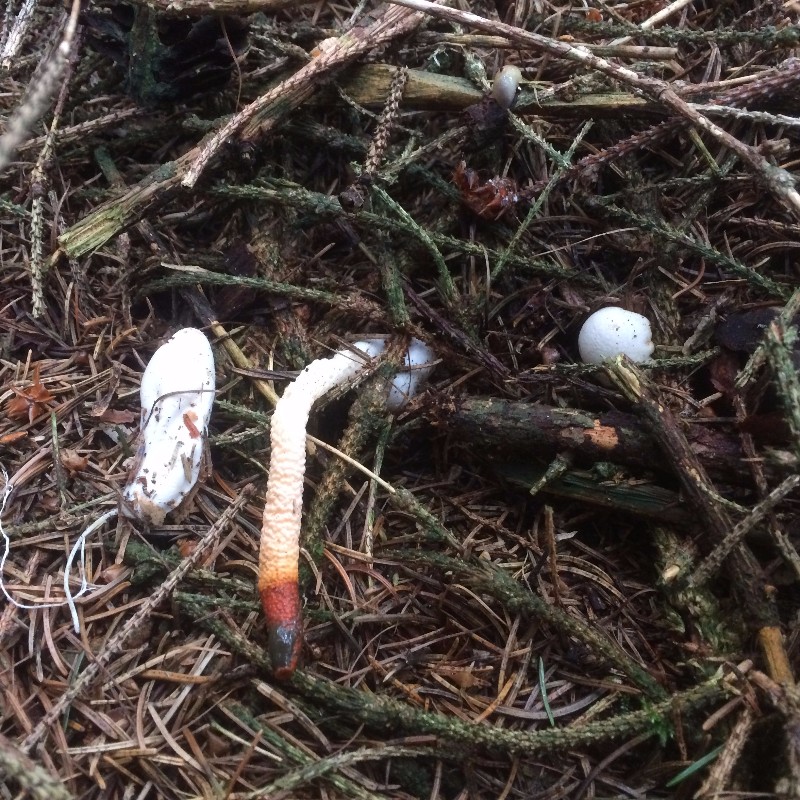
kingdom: Fungi
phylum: Basidiomycota
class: Agaricomycetes
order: Phallales
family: Phallaceae
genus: Mutinus
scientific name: Mutinus caninus
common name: hunde-stinksvamp
